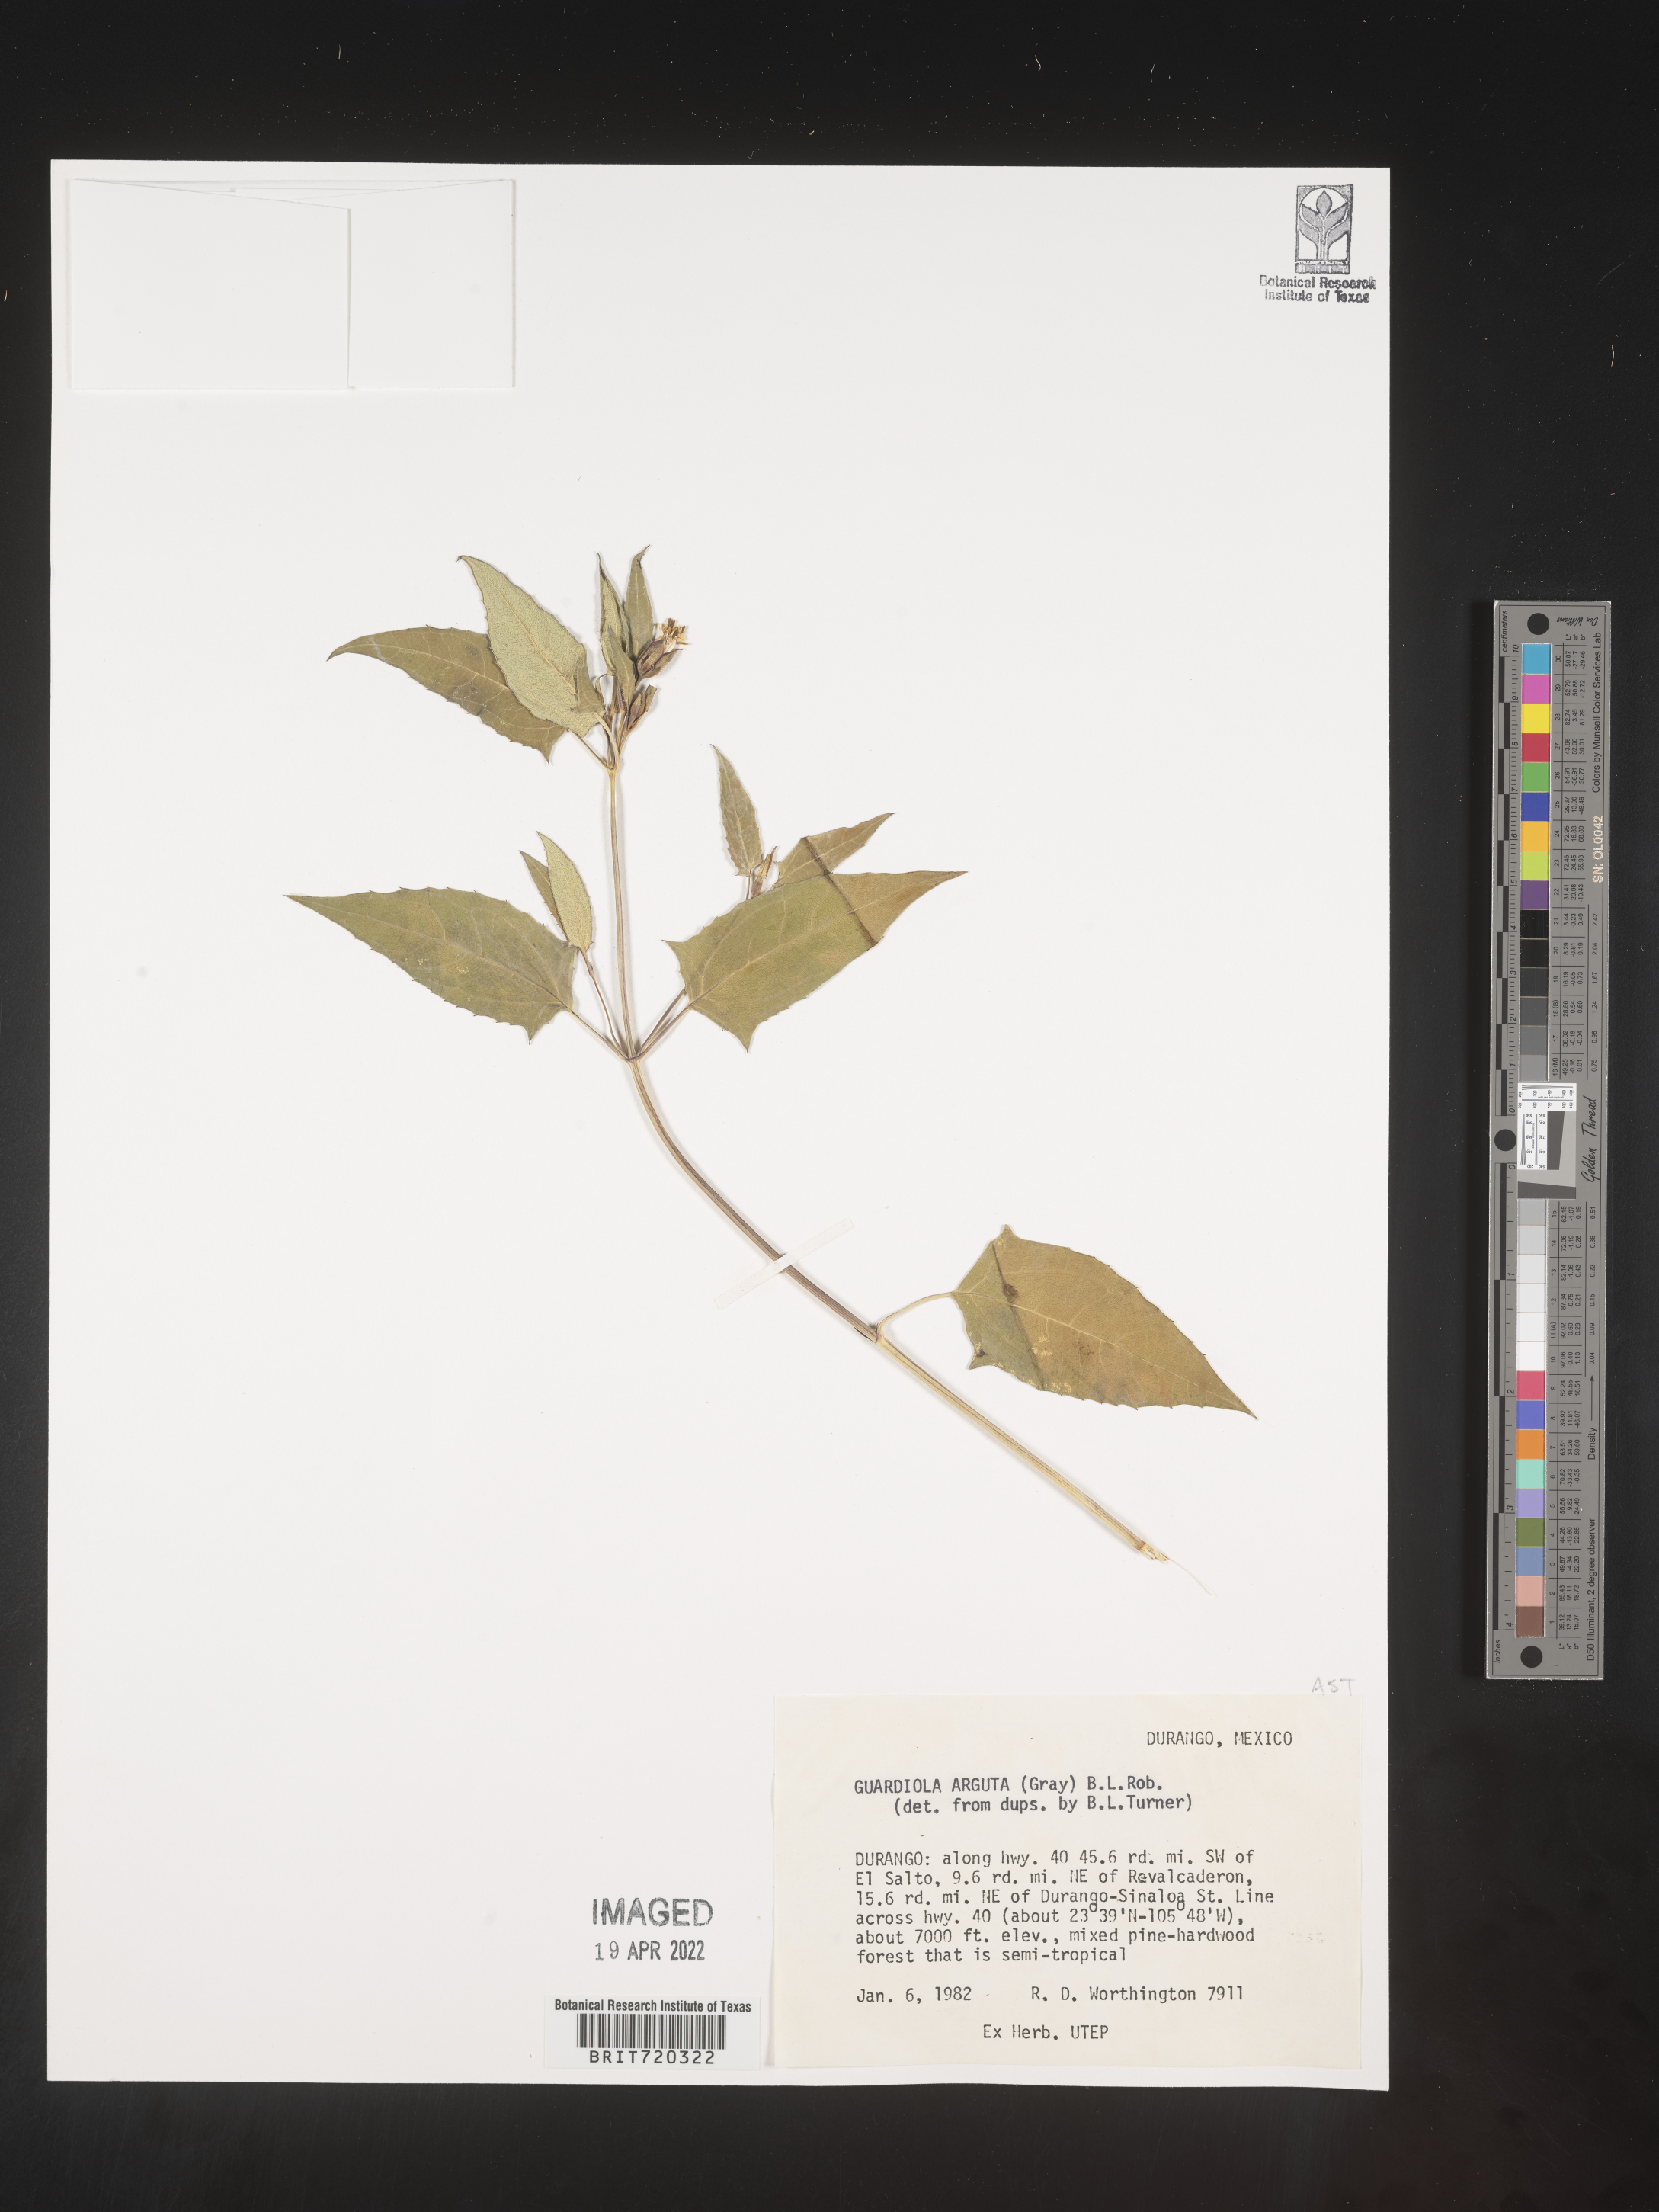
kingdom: Plantae
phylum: Tracheophyta
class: Magnoliopsida
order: Asterales
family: Asteraceae
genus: Guardiola
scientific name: Guardiola
